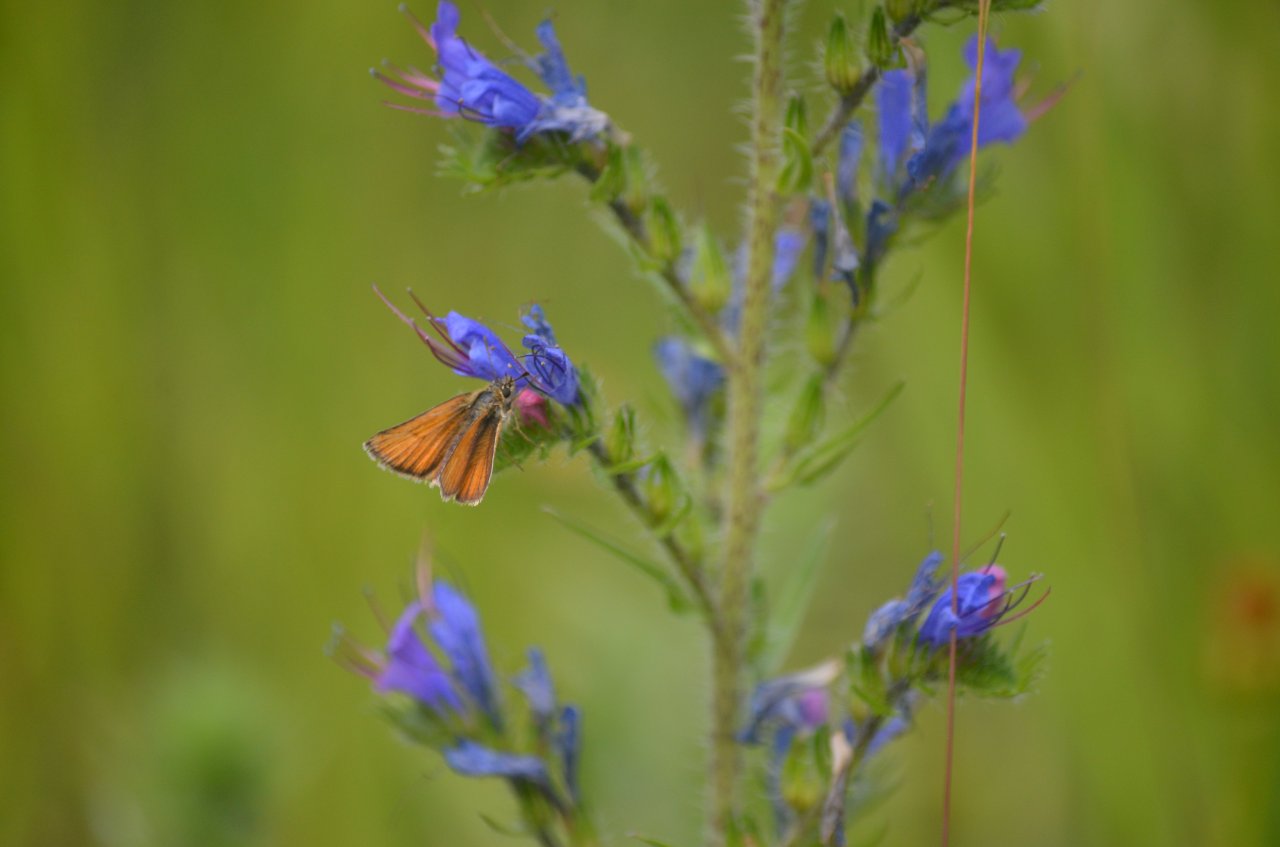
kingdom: Animalia
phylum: Arthropoda
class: Insecta
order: Lepidoptera
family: Hesperiidae
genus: Thymelicus
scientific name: Thymelicus lineola
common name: European Skipper
